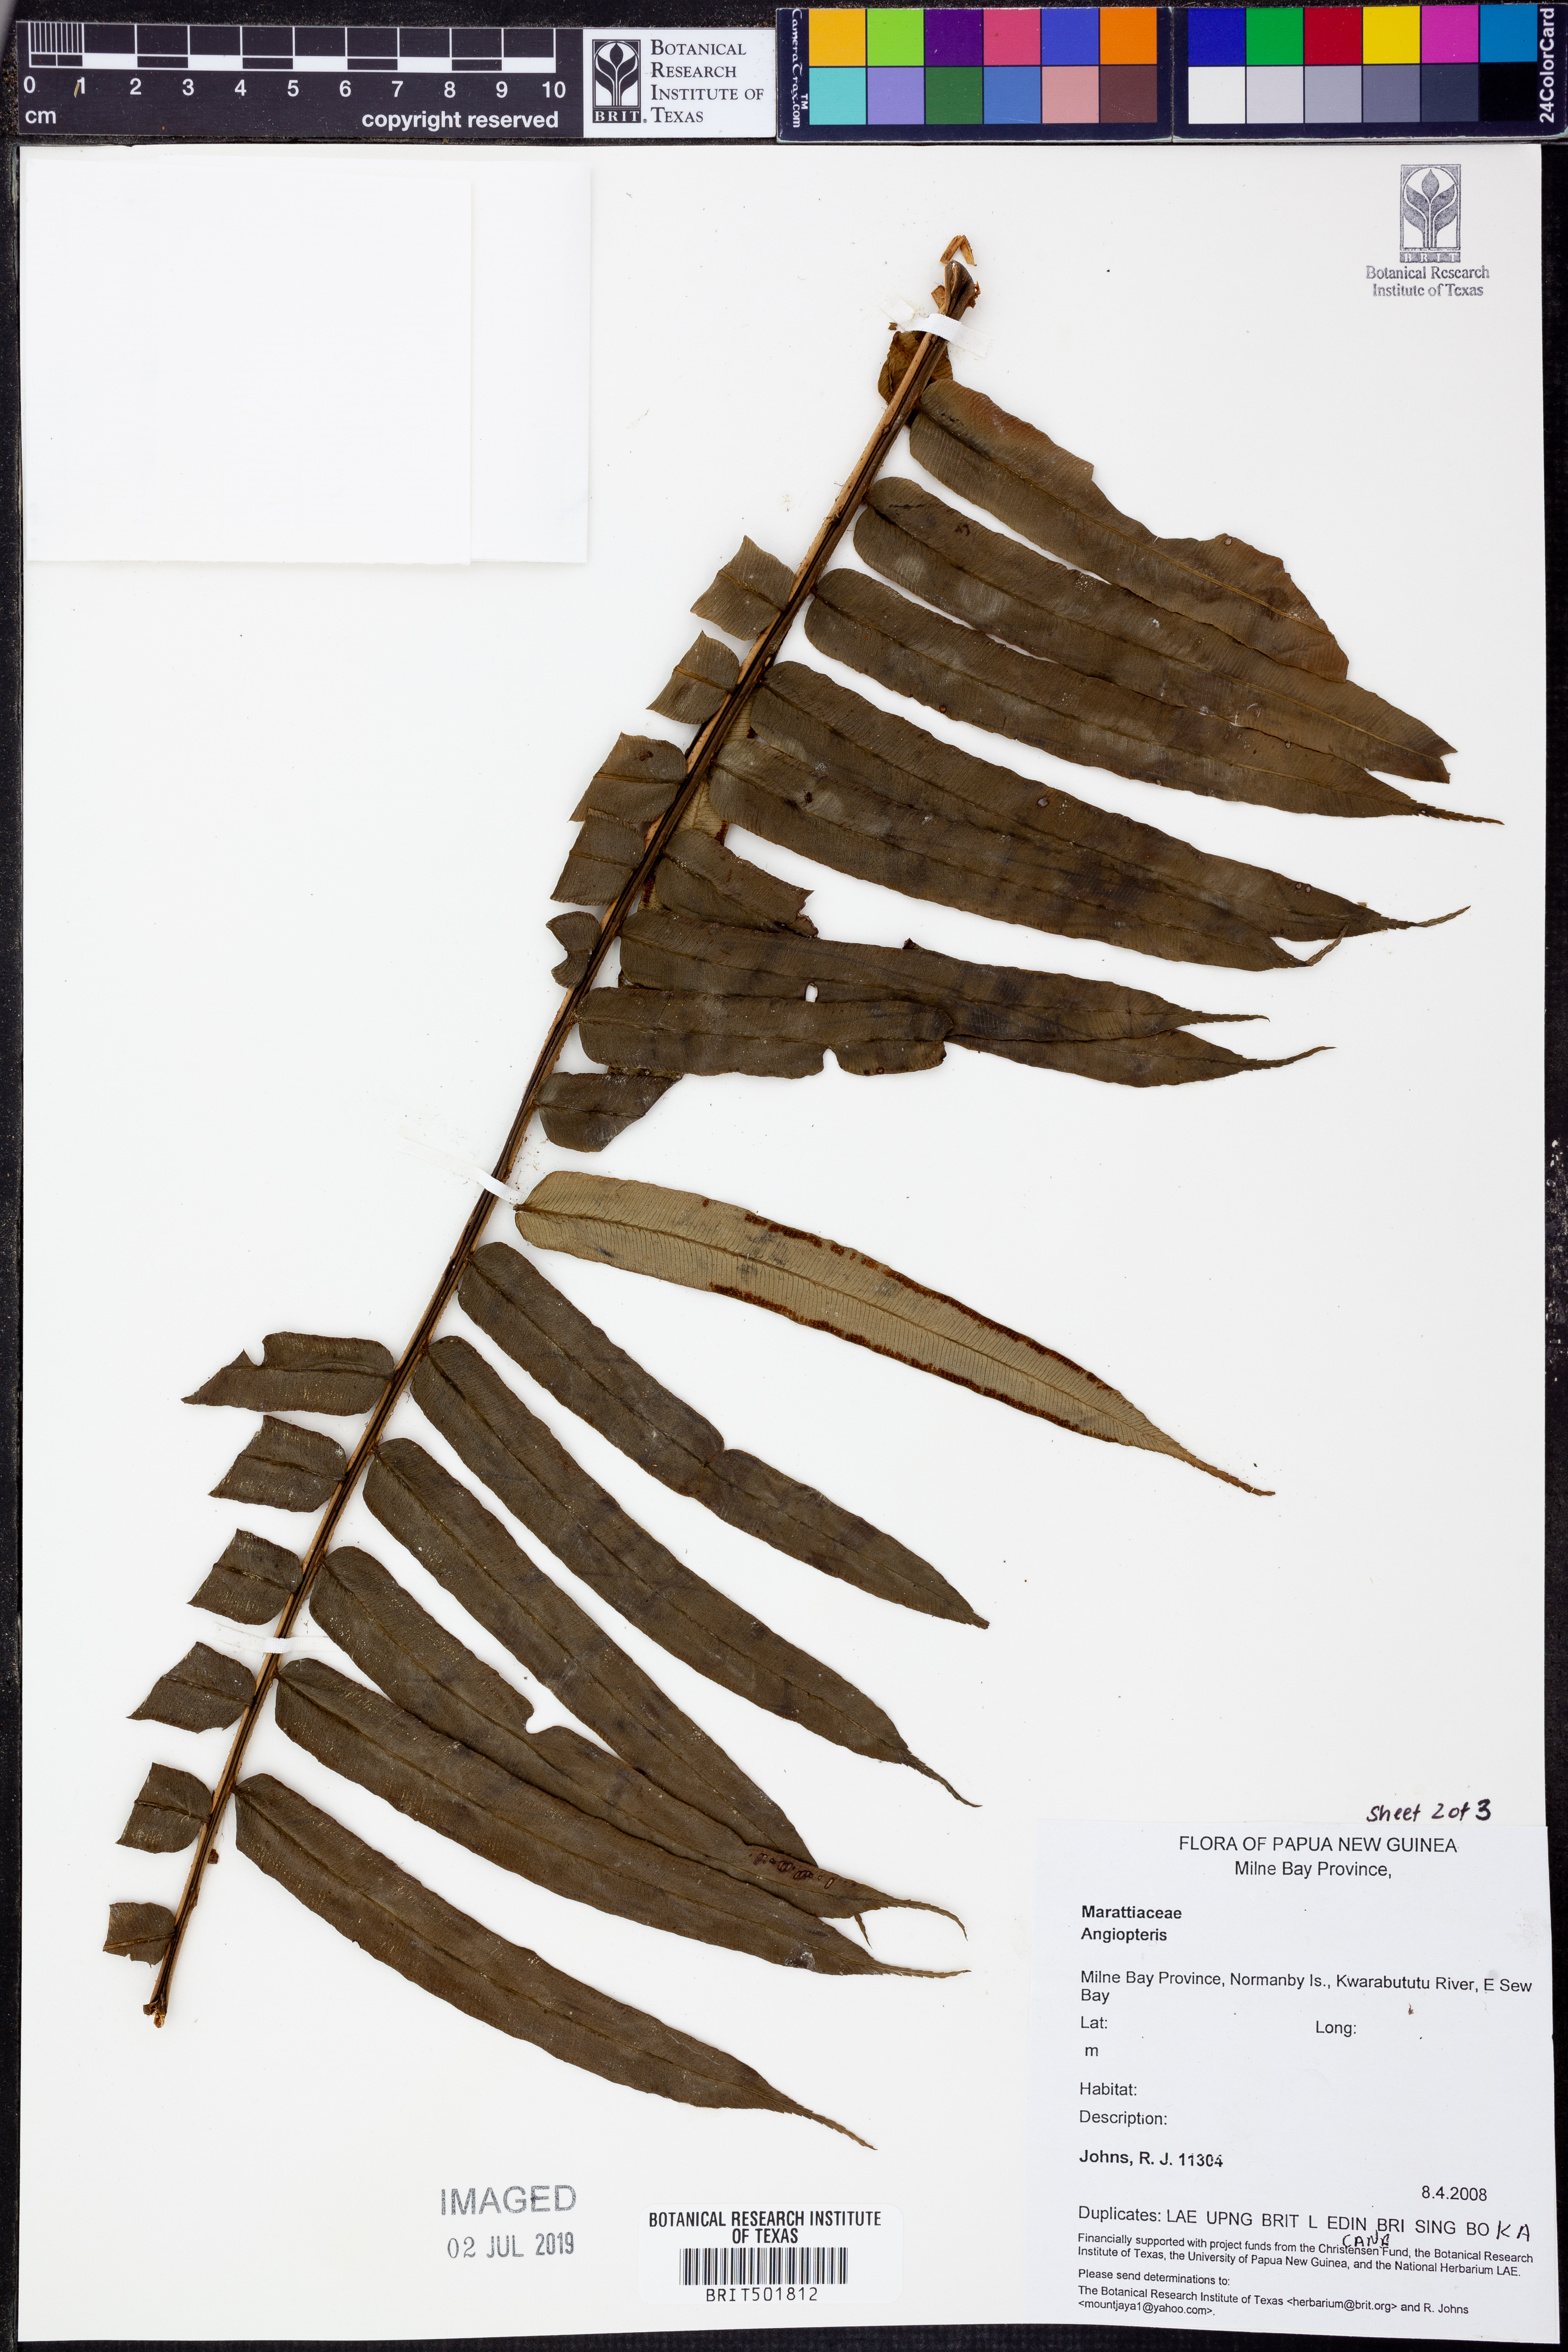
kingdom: Plantae
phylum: Tracheophyta
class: Polypodiopsida
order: Marattiales
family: Marattiaceae
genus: Angiopteris
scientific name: Angiopteris
